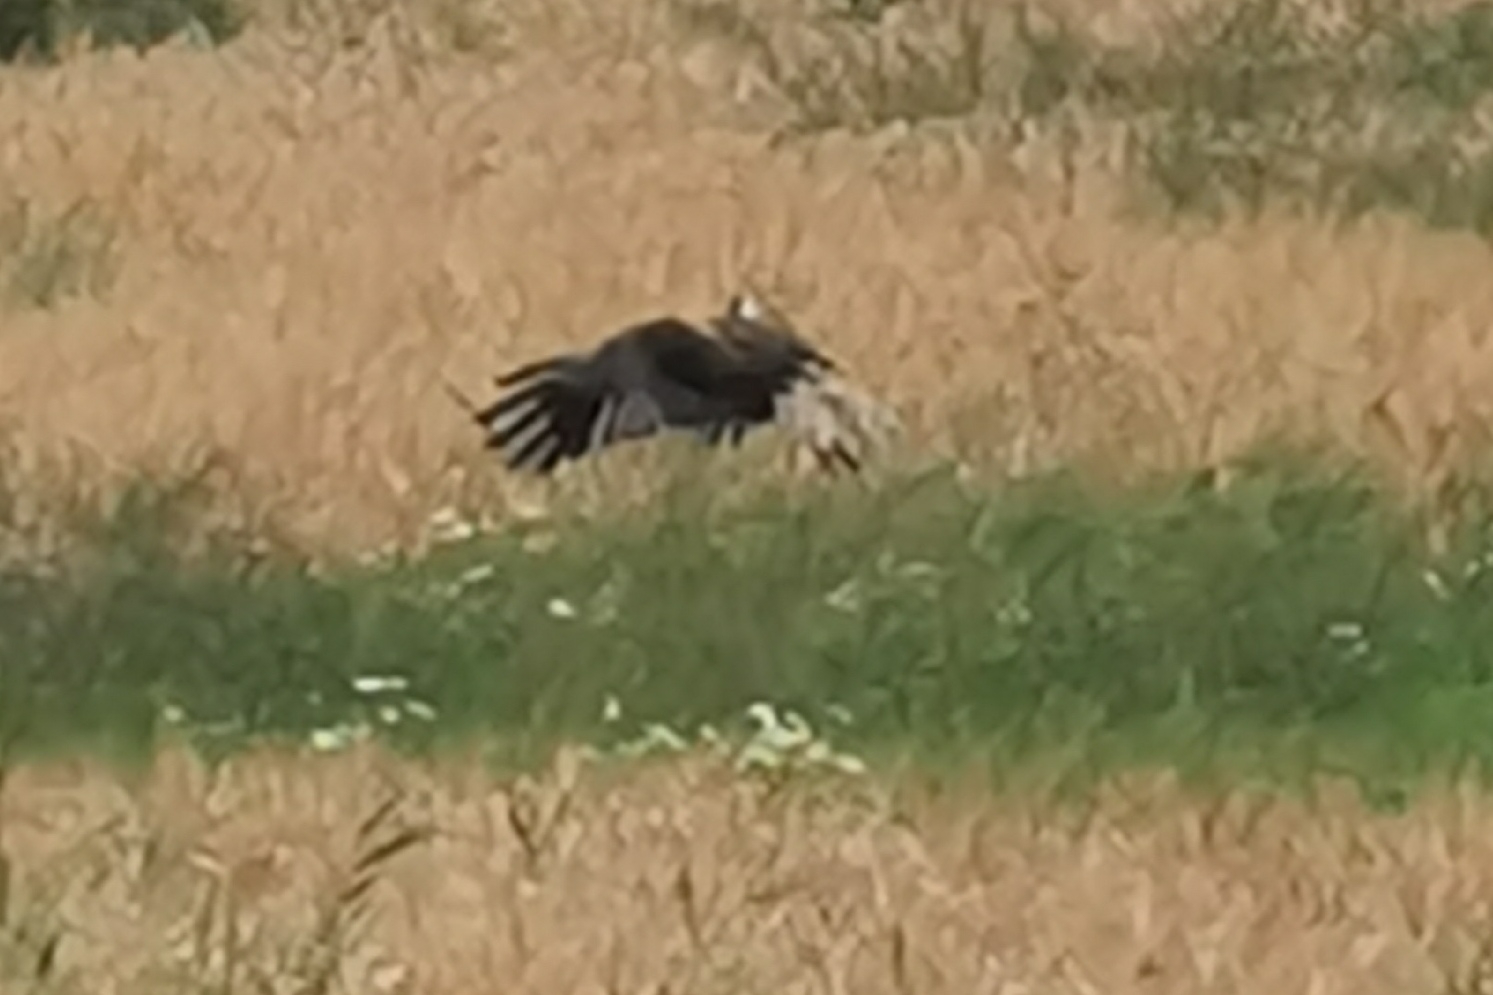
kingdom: Animalia
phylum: Chordata
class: Aves
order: Accipitriformes
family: Accipitridae
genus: Circus
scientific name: Circus aeruginosus
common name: Rørhøg
